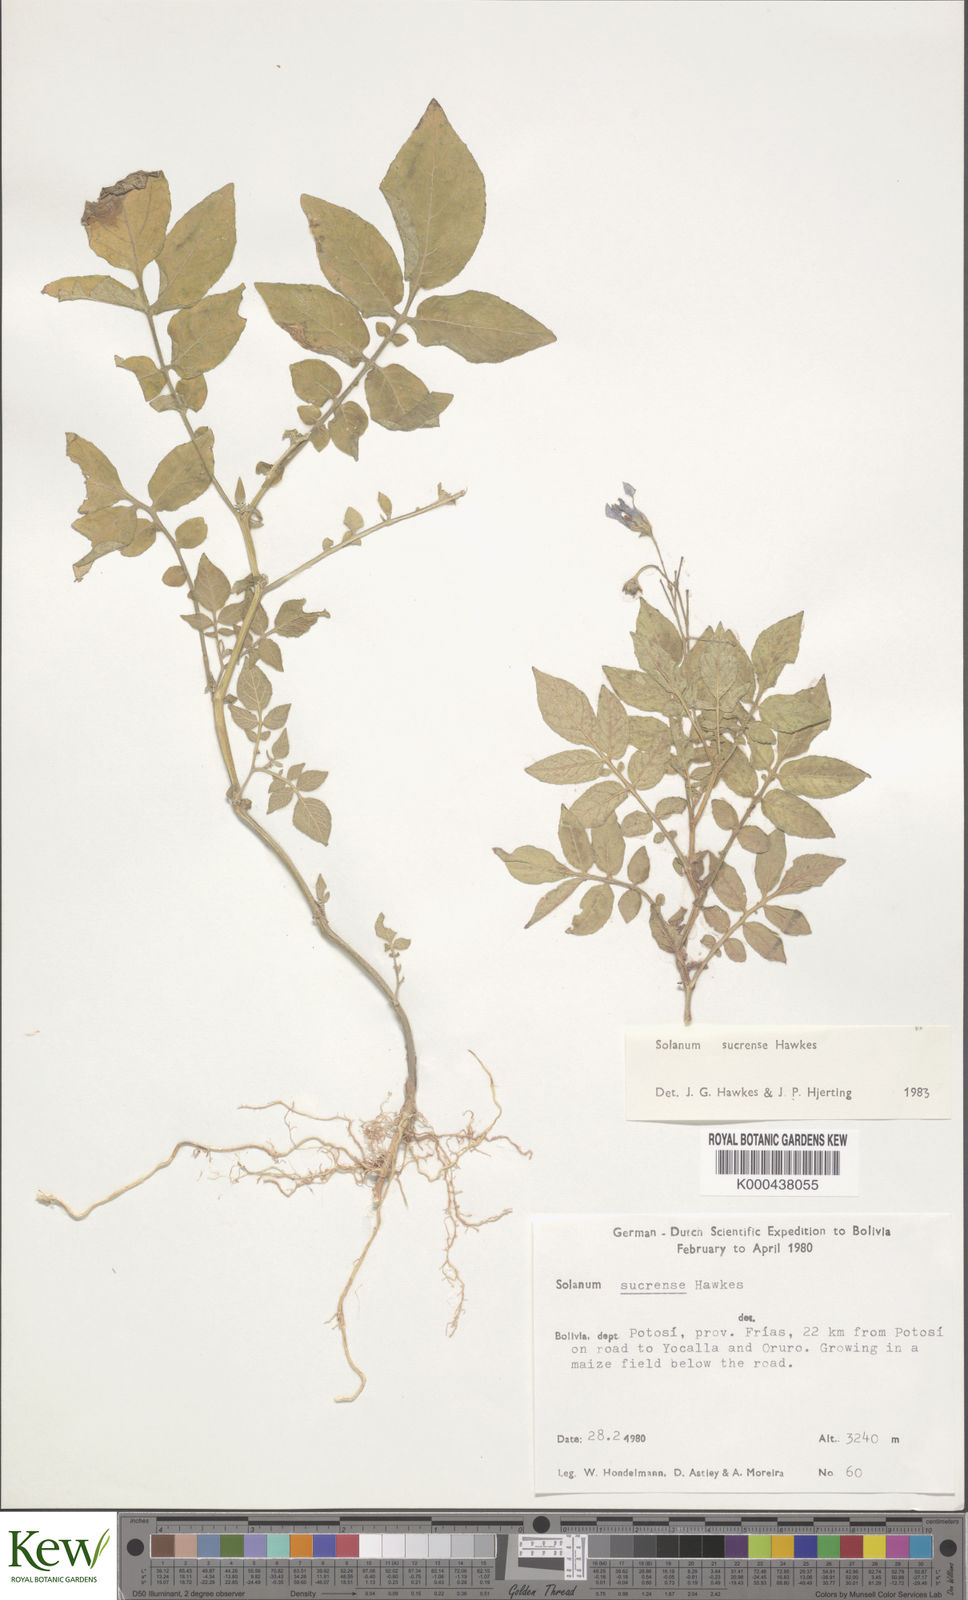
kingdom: Plantae
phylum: Tracheophyta
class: Magnoliopsida
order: Solanales
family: Solanaceae
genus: Solanum
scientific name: Solanum brevicaule
